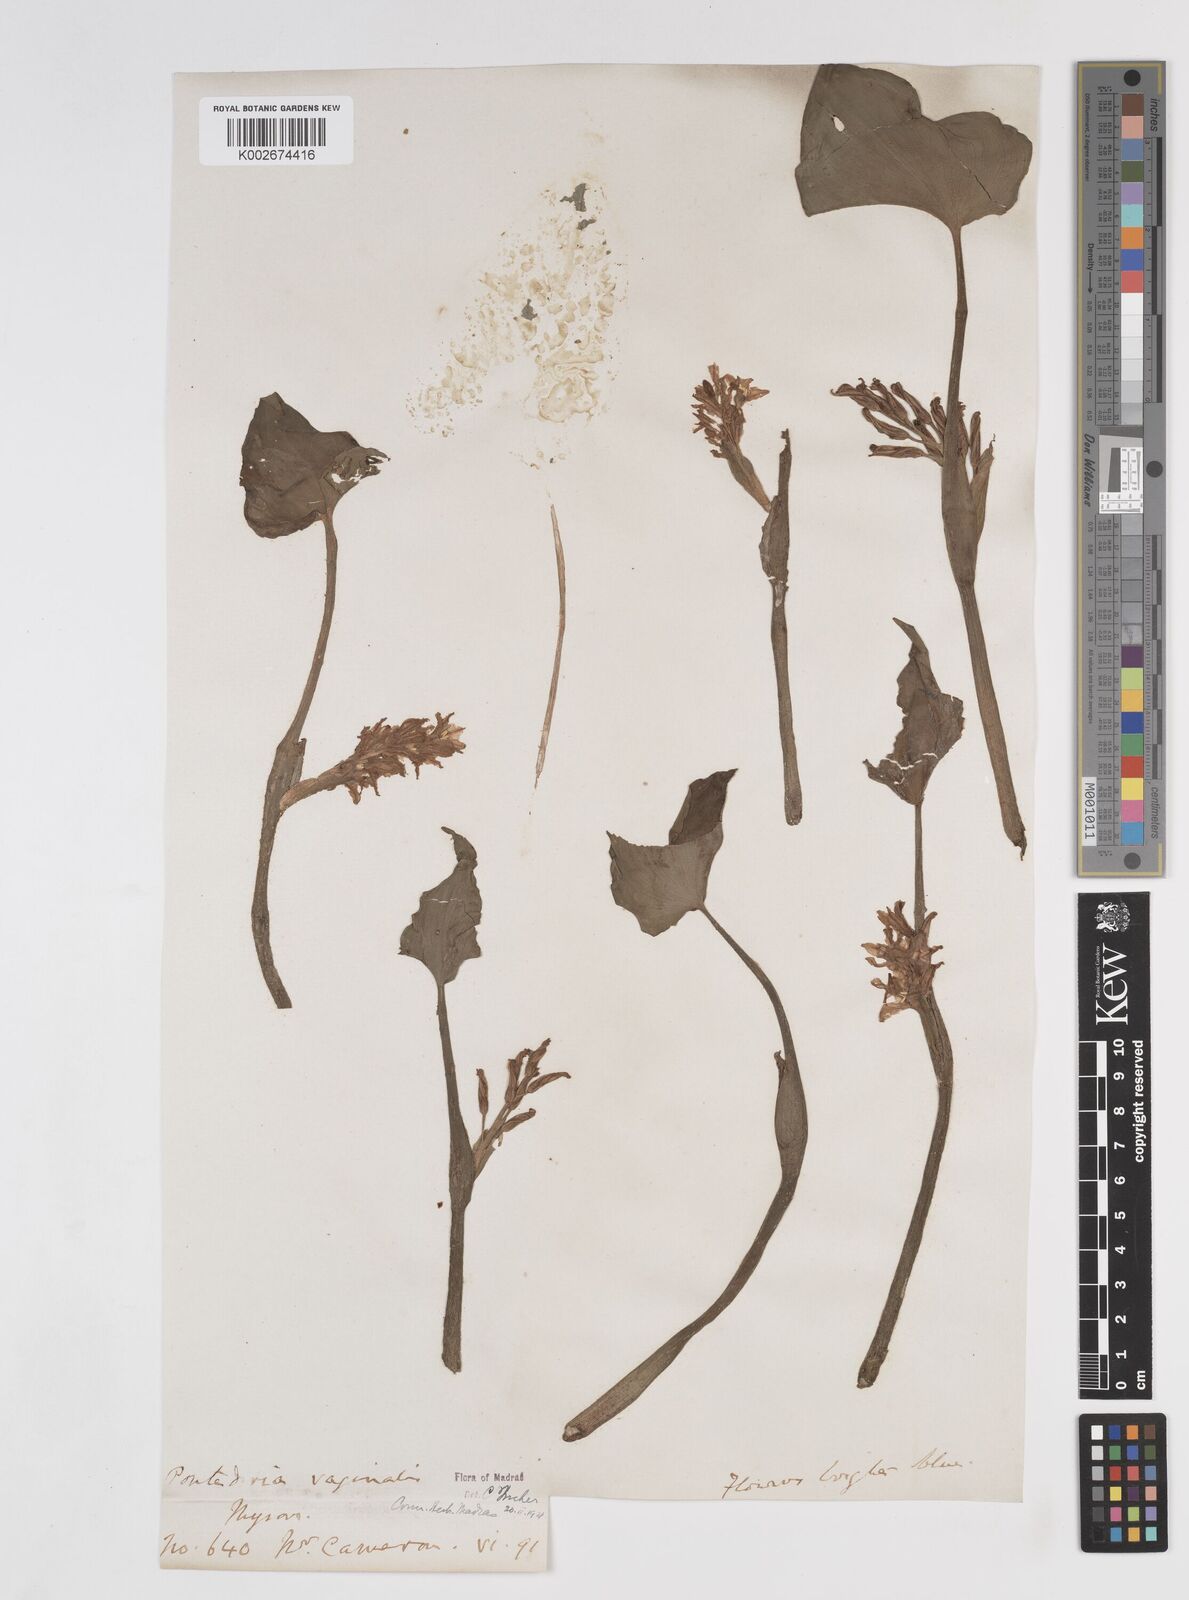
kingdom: Plantae
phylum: Tracheophyta
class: Liliopsida
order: Commelinales
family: Pontederiaceae
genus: Pontederia
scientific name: Pontederia vaginalis
